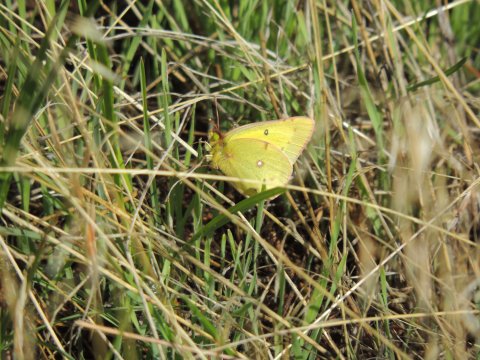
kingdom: Animalia
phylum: Arthropoda
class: Insecta
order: Lepidoptera
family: Pieridae
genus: Colias
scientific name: Colias eurytheme
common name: Orange Sulphur
